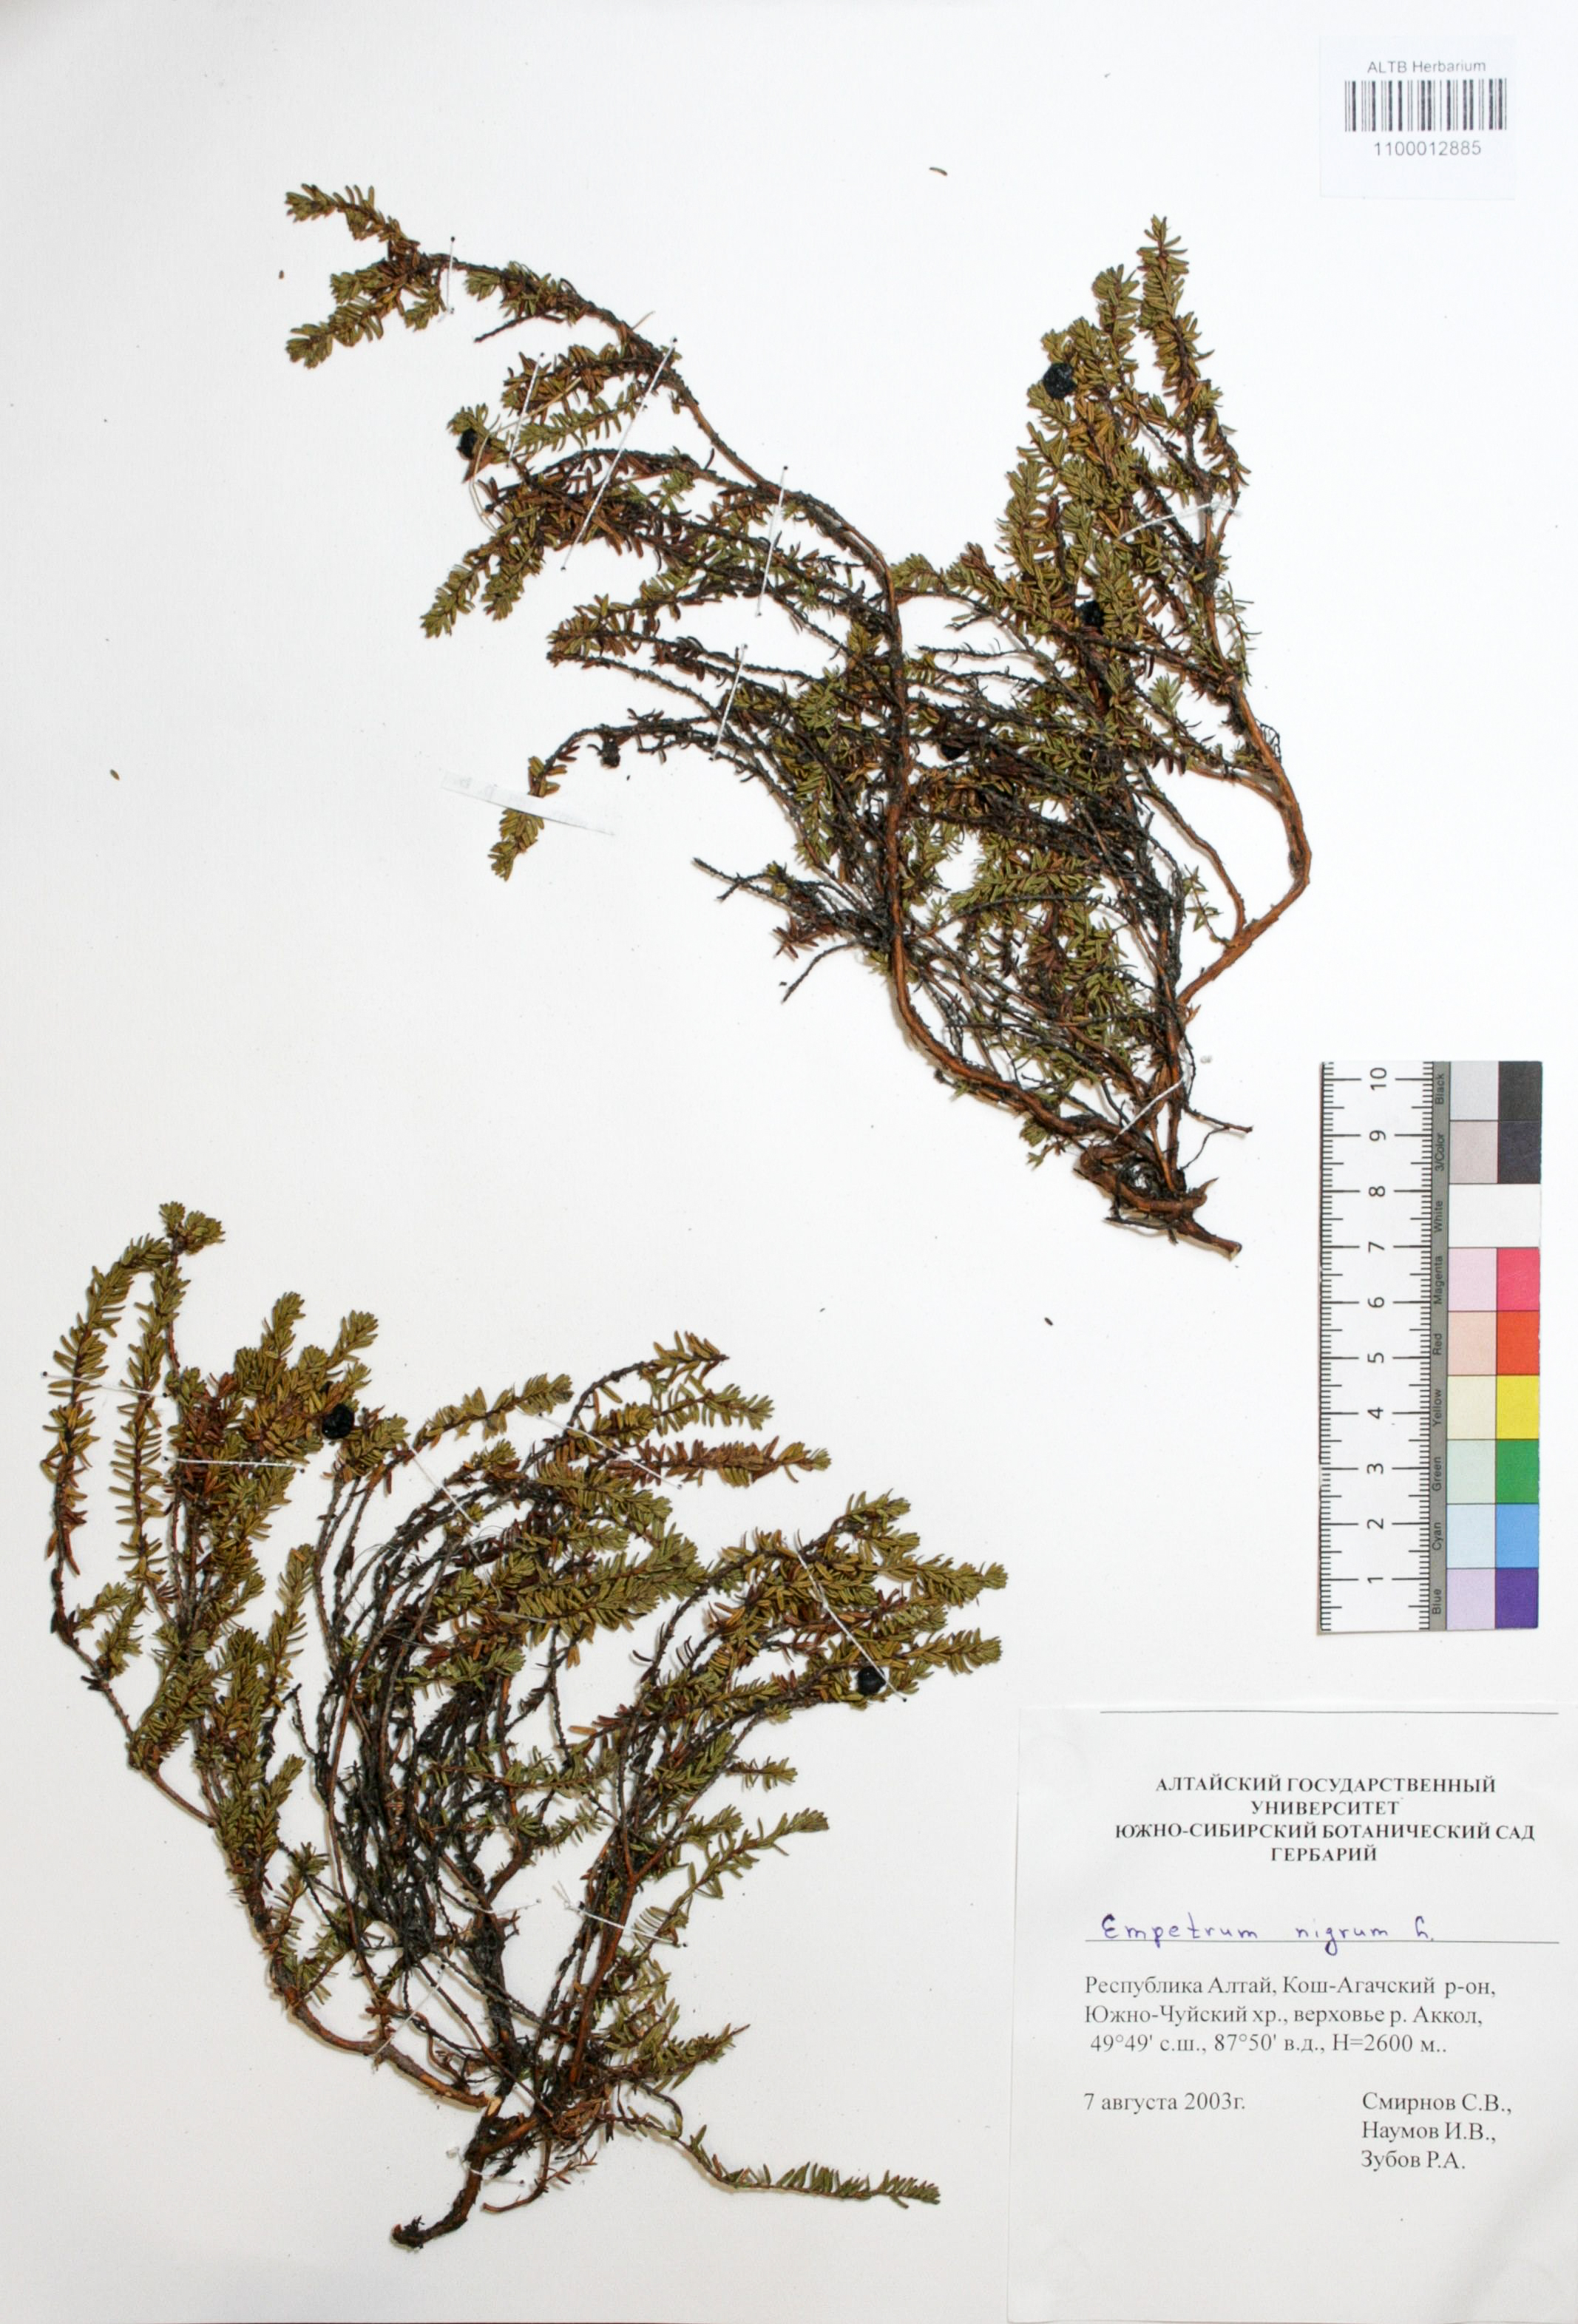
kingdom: Plantae
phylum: Tracheophyta
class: Magnoliopsida
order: Ericales
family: Ericaceae
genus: Empetrum
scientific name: Empetrum nigrum
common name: Black crowberry
